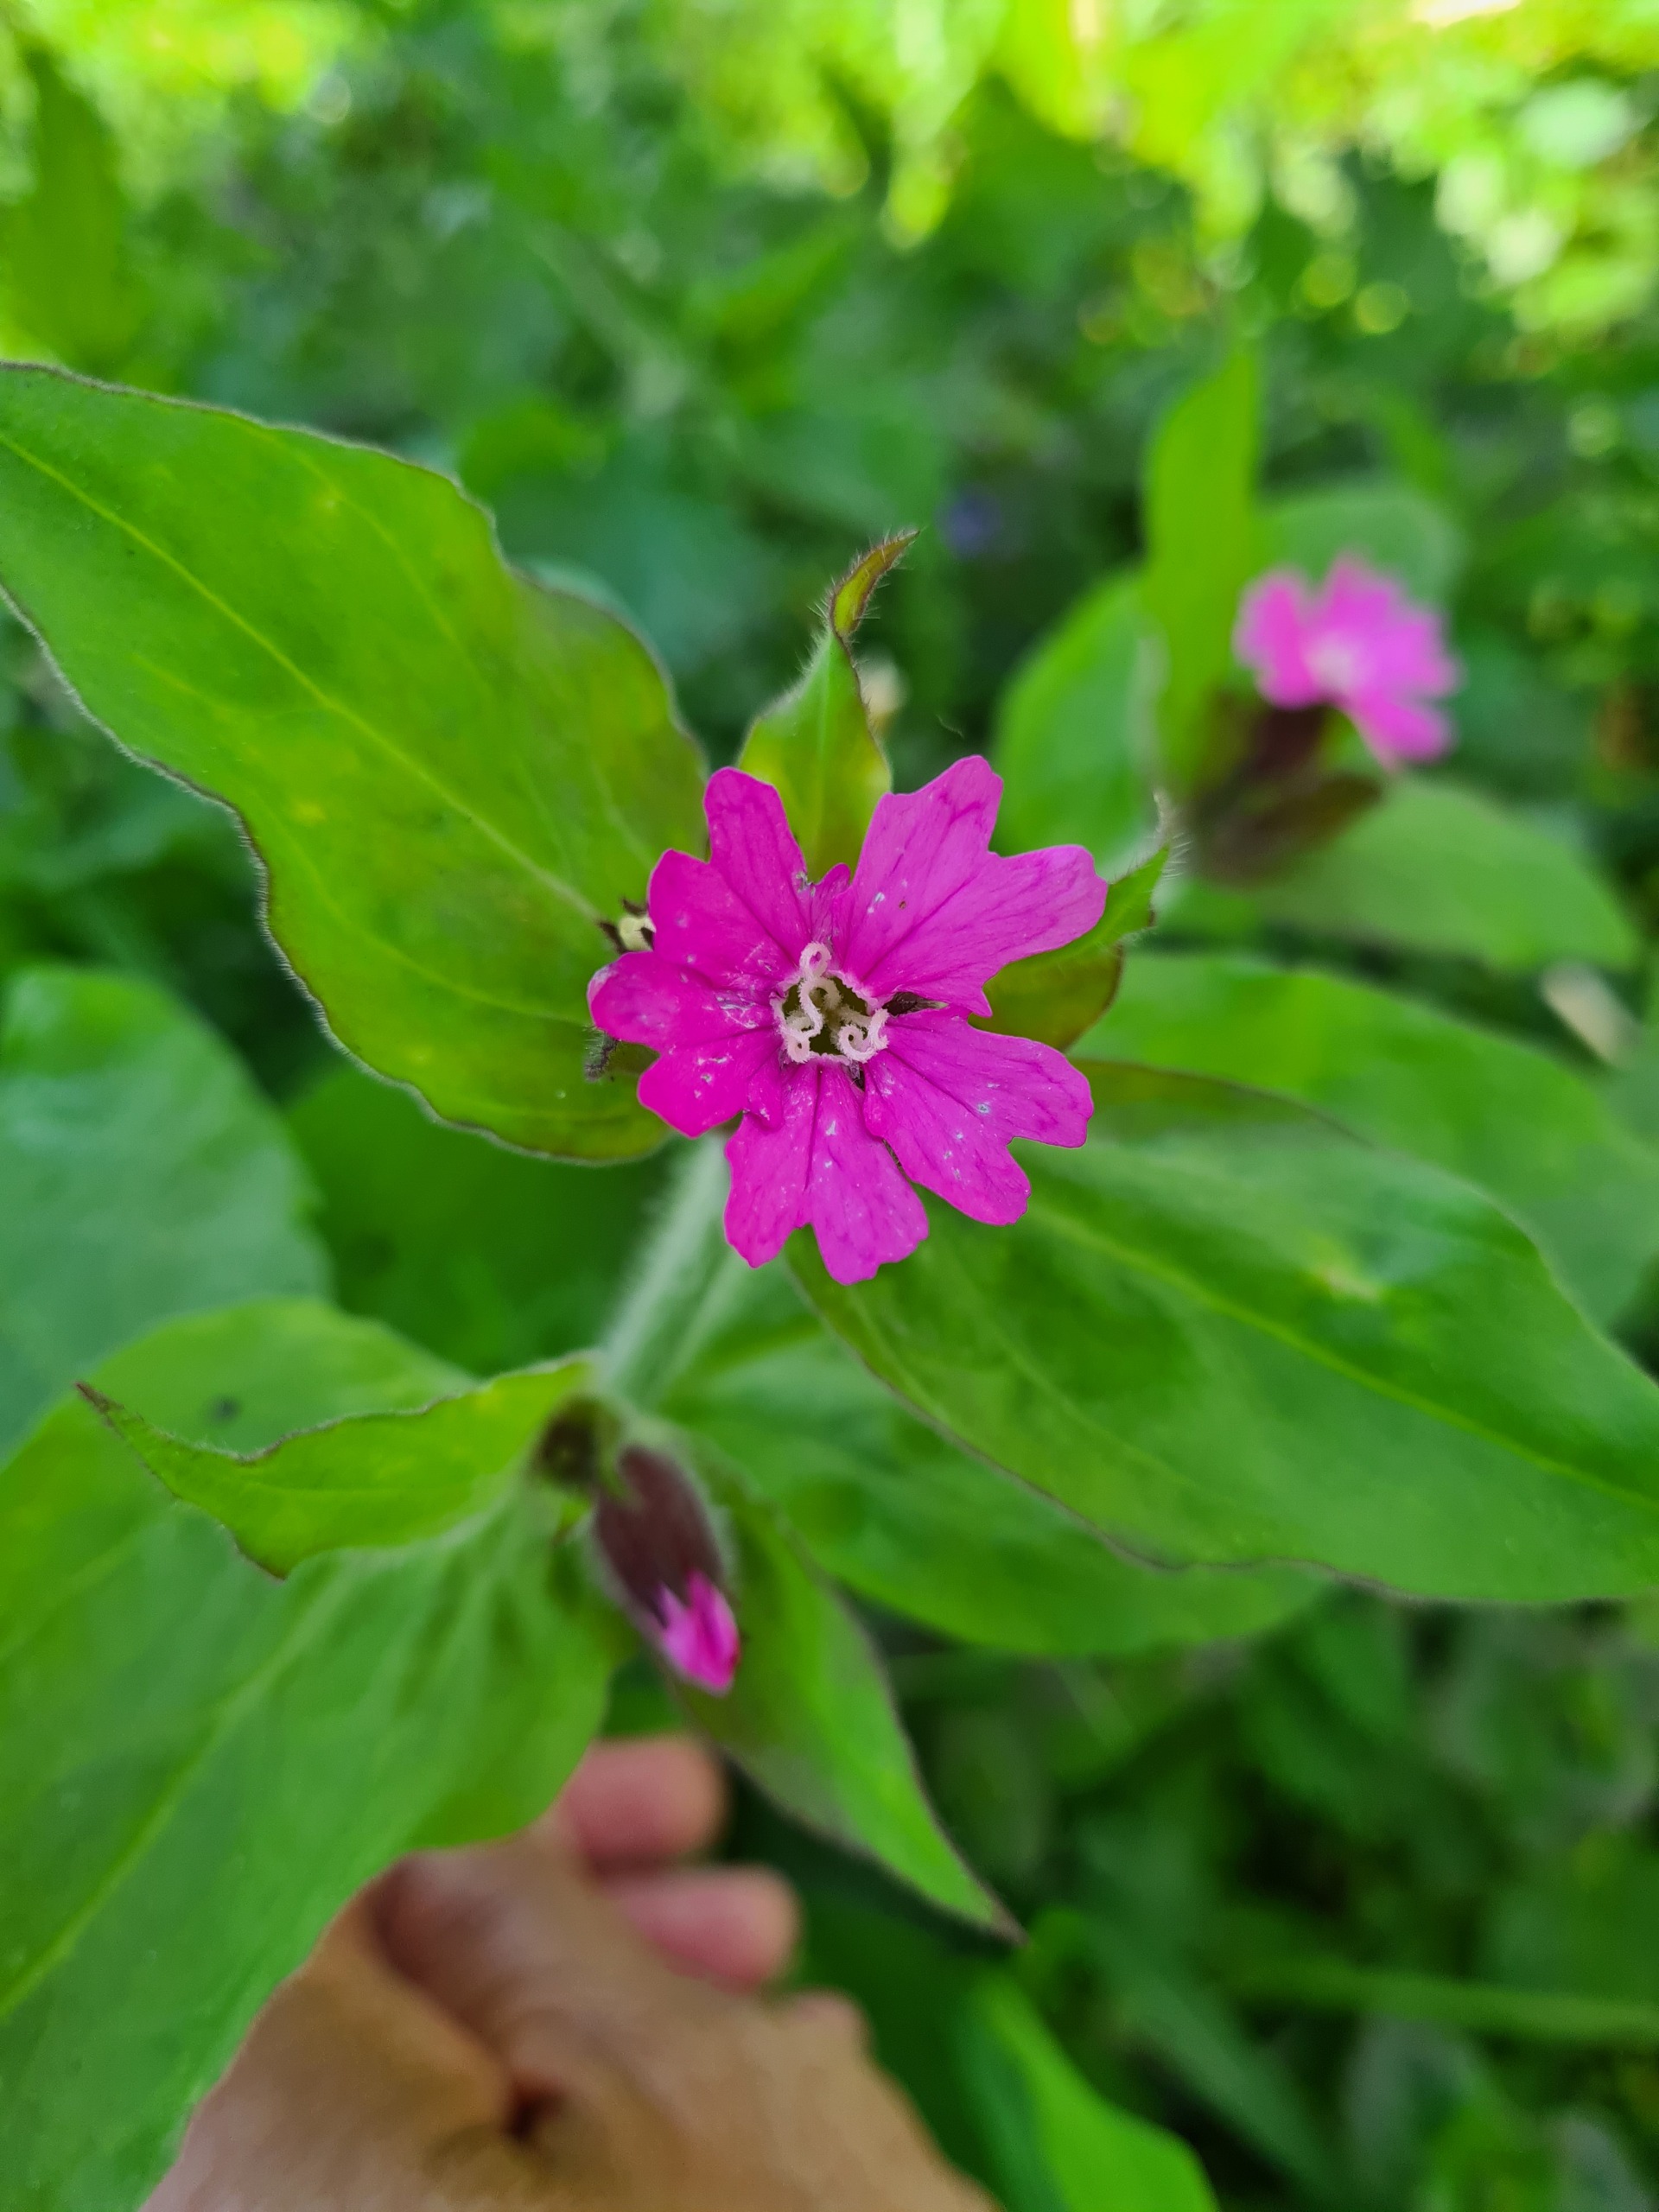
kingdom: Plantae
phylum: Tracheophyta
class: Magnoliopsida
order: Caryophyllales
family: Caryophyllaceae
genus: Silene
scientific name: Silene dioica
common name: Dagpragtstjerne
